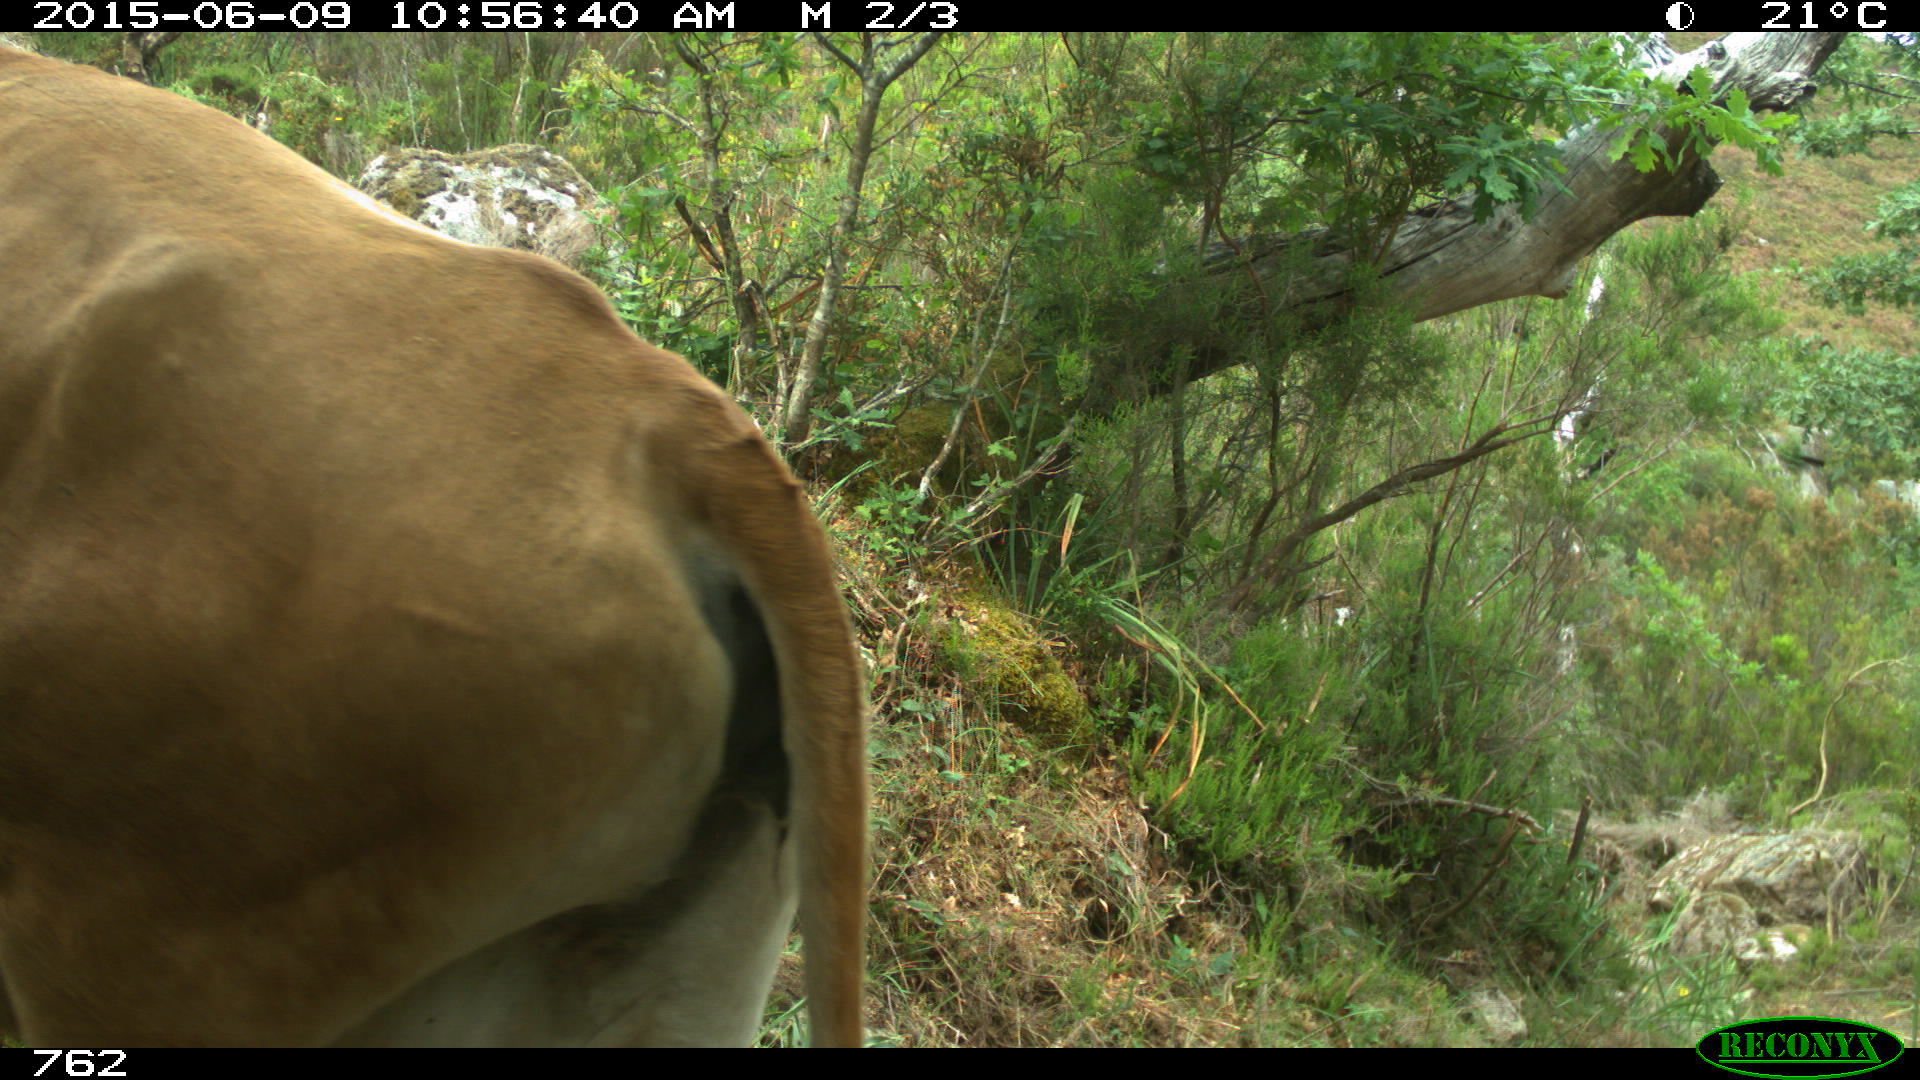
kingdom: Animalia
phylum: Chordata
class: Mammalia
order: Artiodactyla
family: Bovidae
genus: Bos
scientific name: Bos taurus
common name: Domesticated cattle
